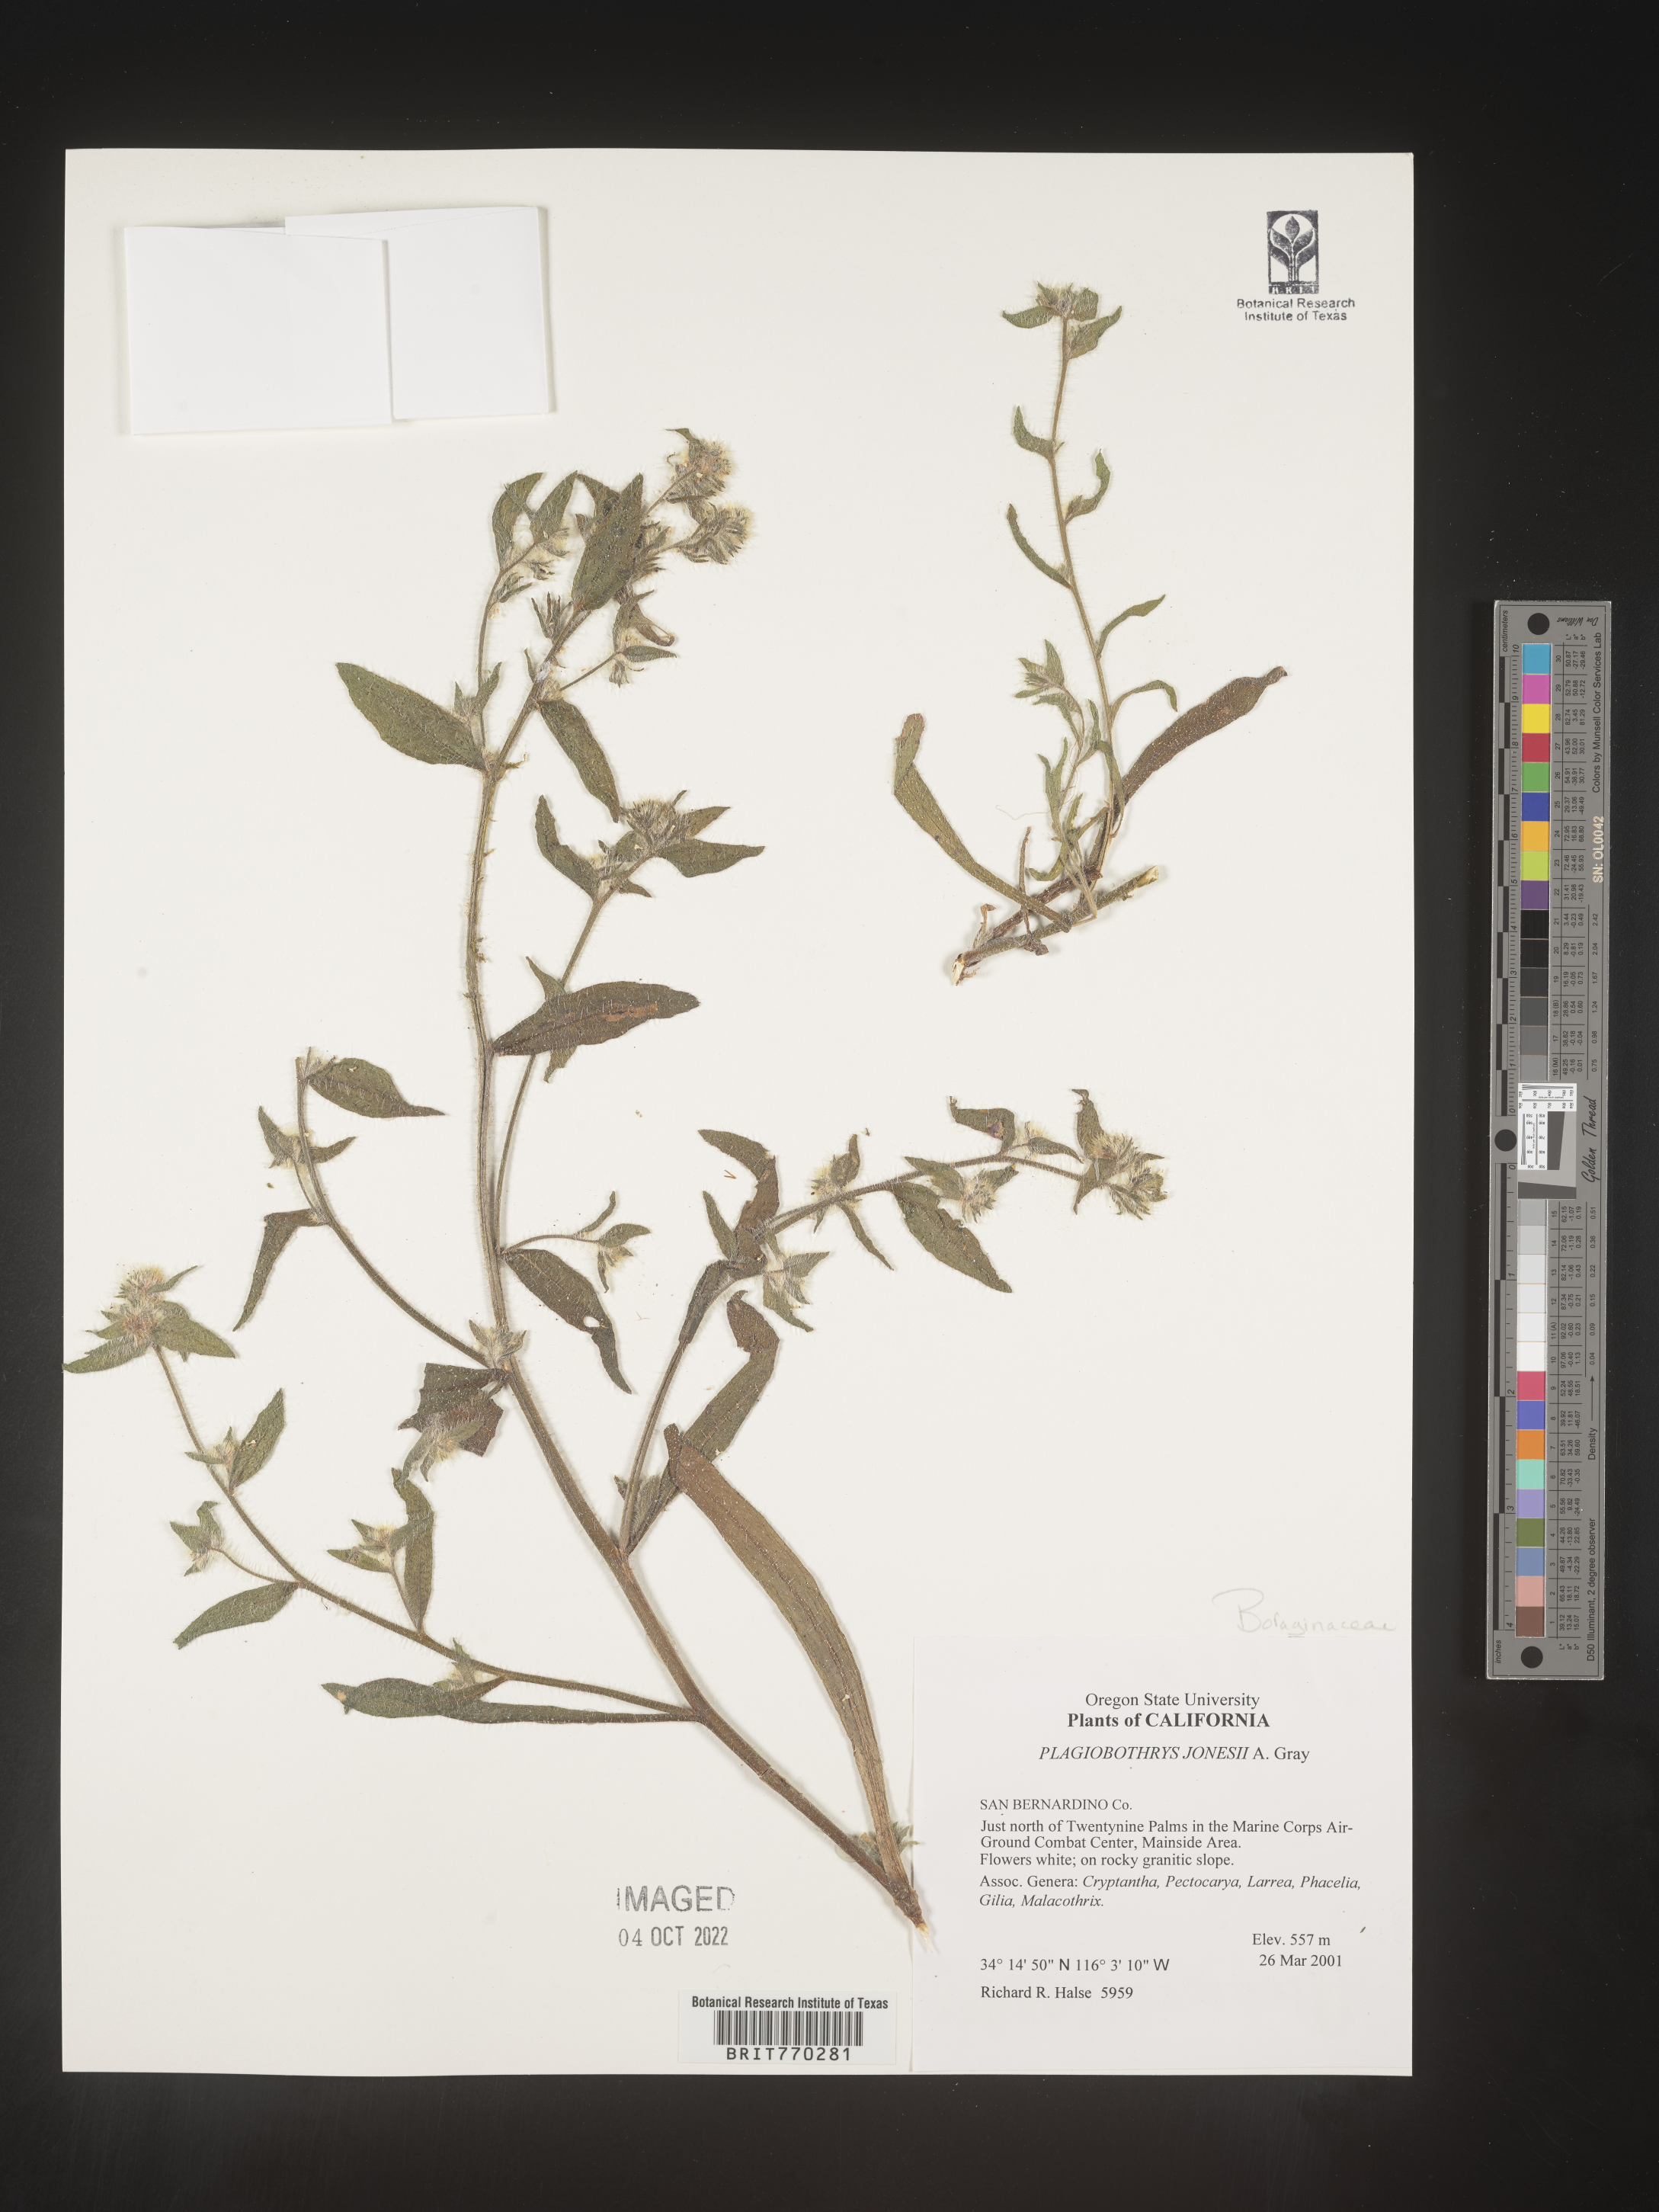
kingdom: Plantae
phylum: Tracheophyta
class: Magnoliopsida
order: Boraginales
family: Boraginaceae
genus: Plagiobothrys
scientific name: Plagiobothrys
